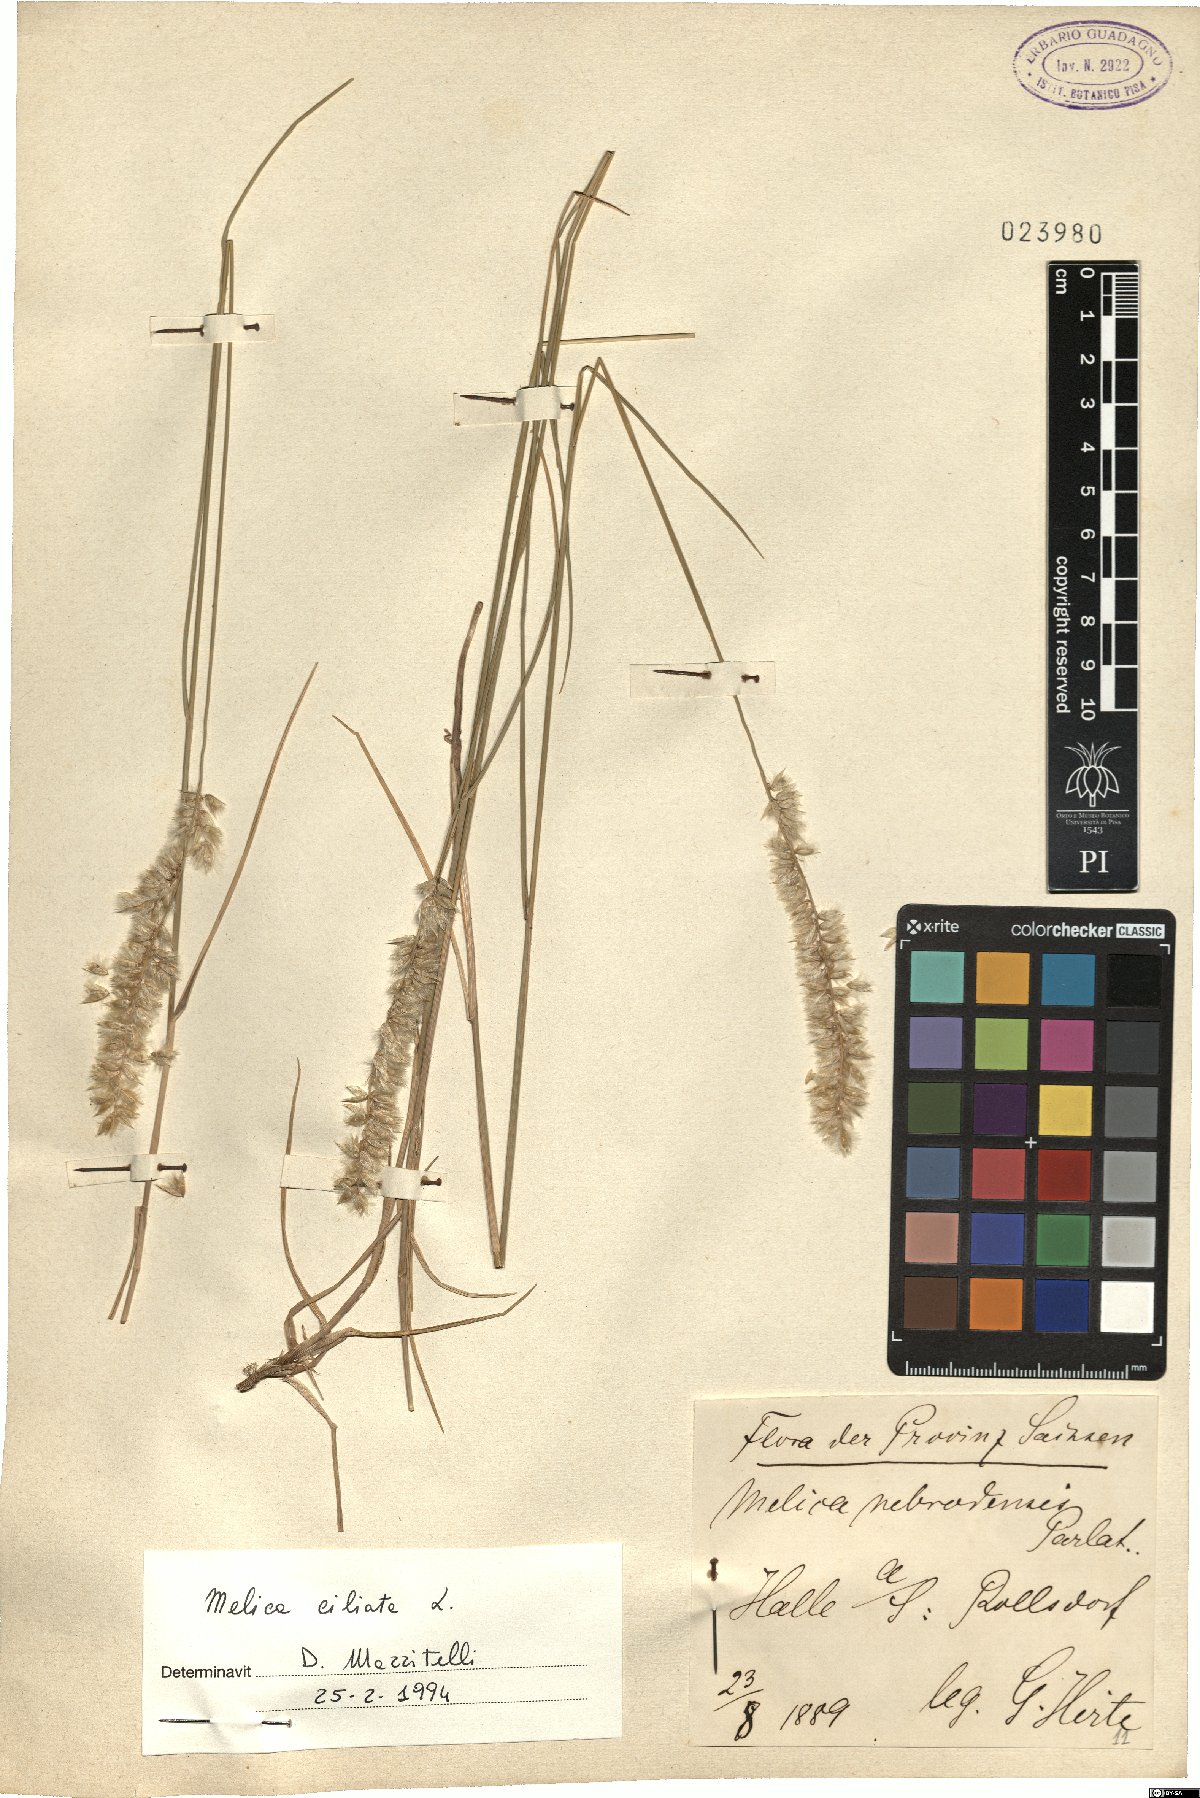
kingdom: Plantae
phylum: Tracheophyta
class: Liliopsida
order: Poales
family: Poaceae
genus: Melica
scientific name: Melica ciliata
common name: Hairy melicgrass
